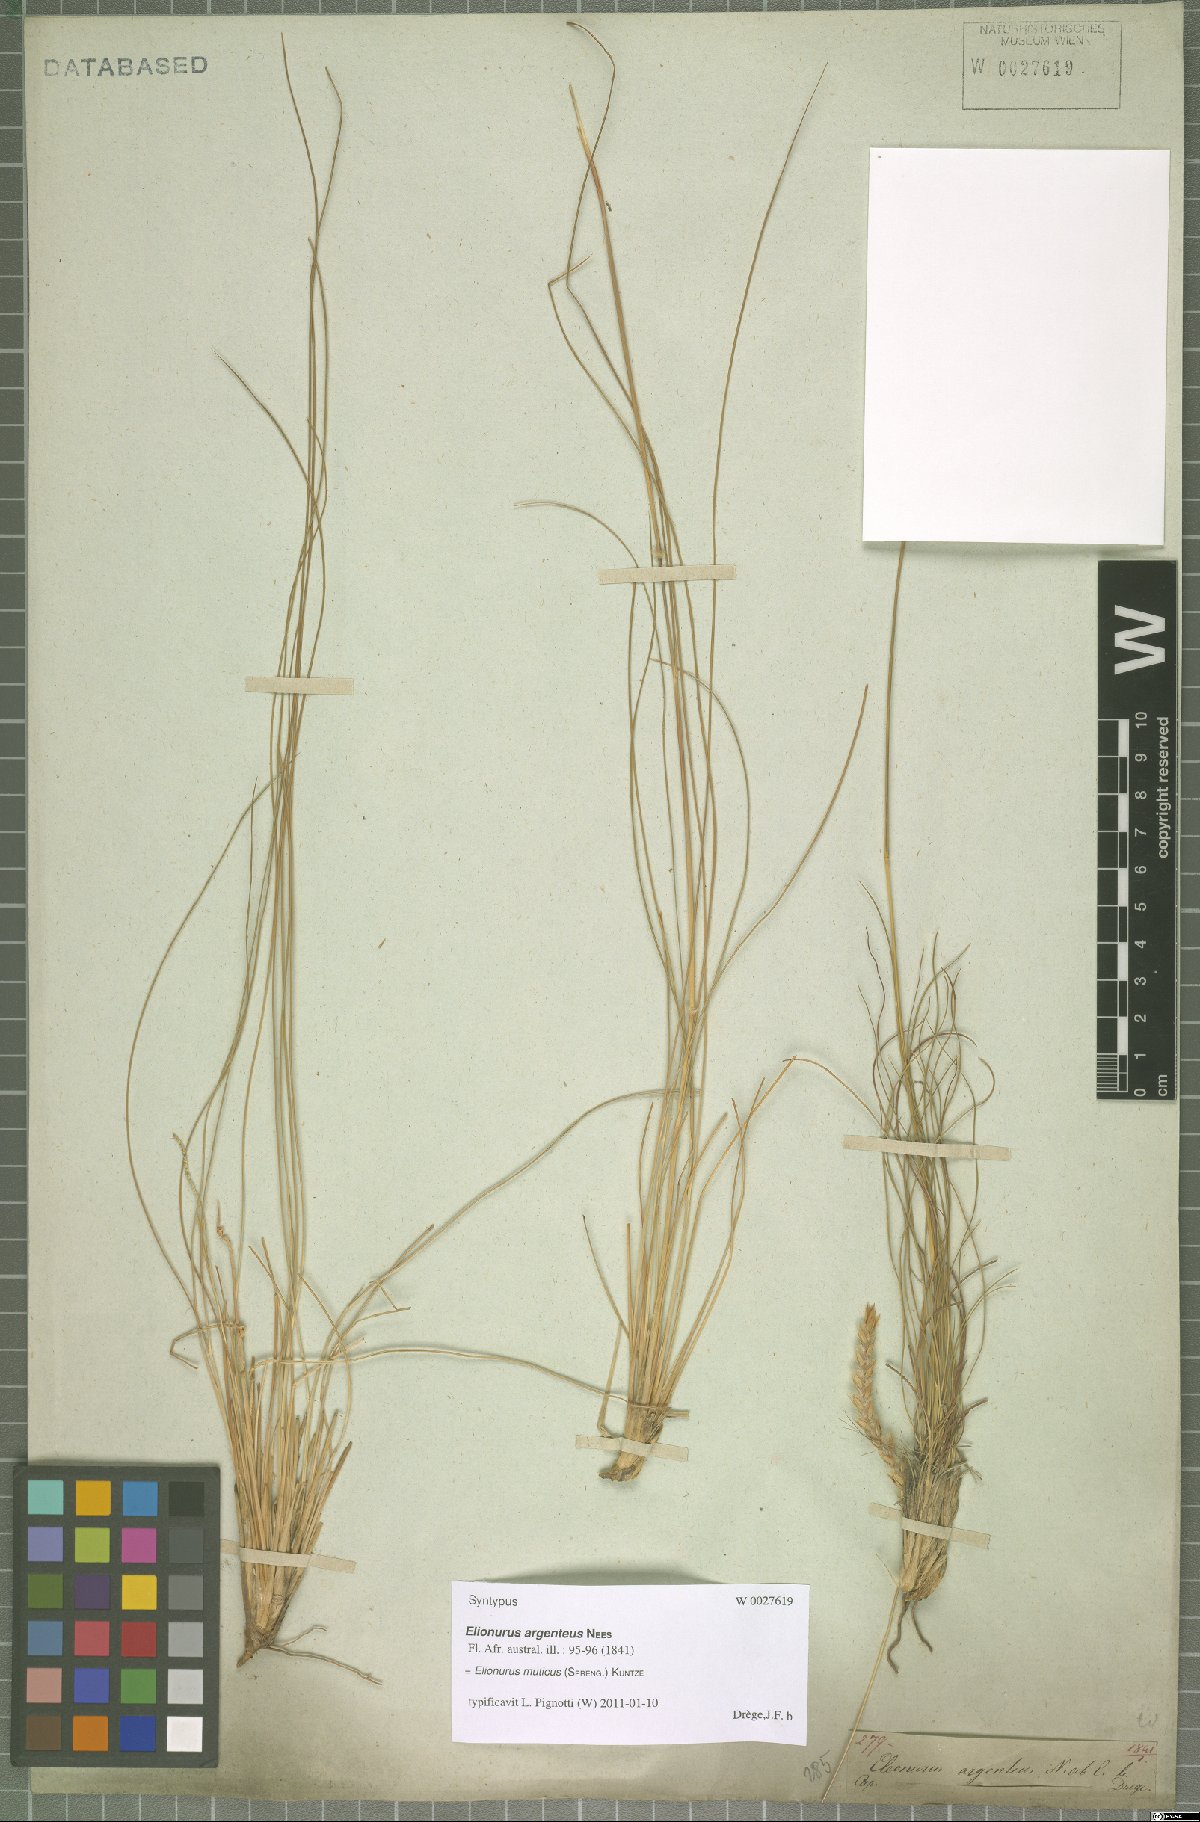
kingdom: Plantae
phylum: Tracheophyta
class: Liliopsida
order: Poales
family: Poaceae
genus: Elionurus
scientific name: Elionurus muticus
